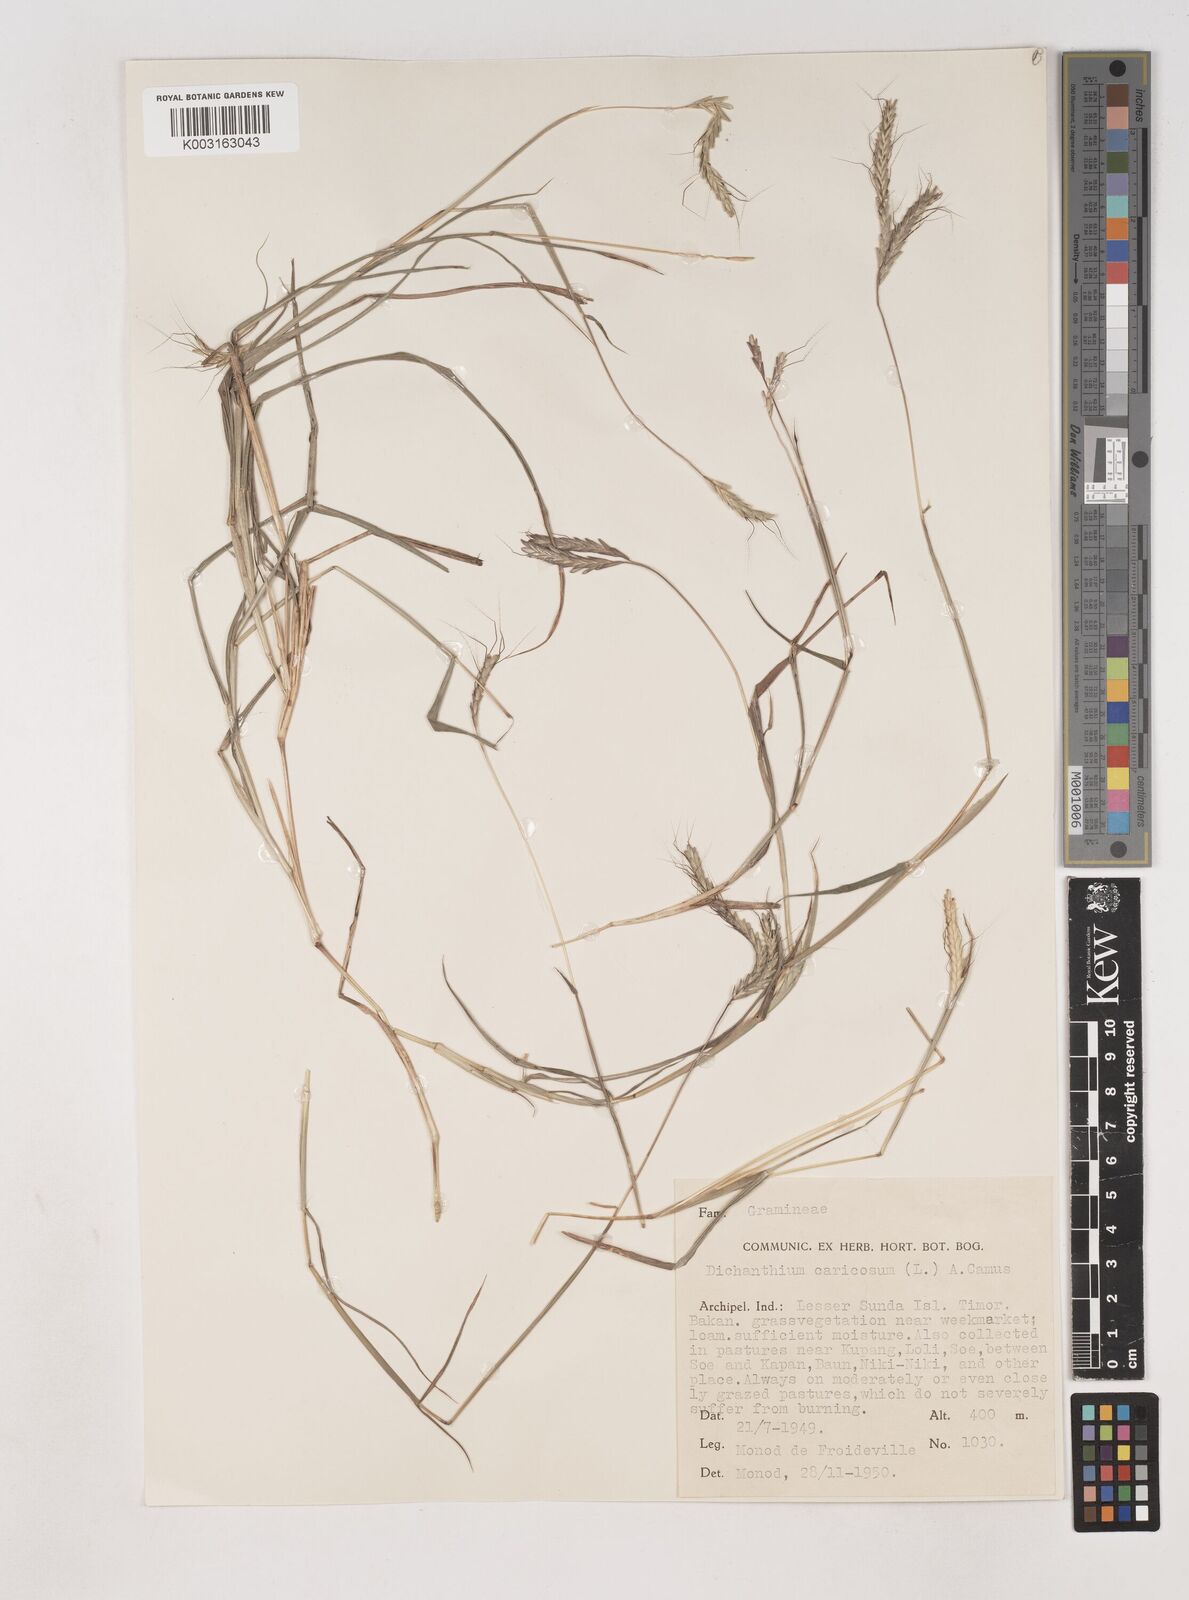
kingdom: Plantae
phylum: Tracheophyta
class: Liliopsida
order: Poales
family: Poaceae
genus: Dichanthium
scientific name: Dichanthium aristatum
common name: Angleton bluestem
